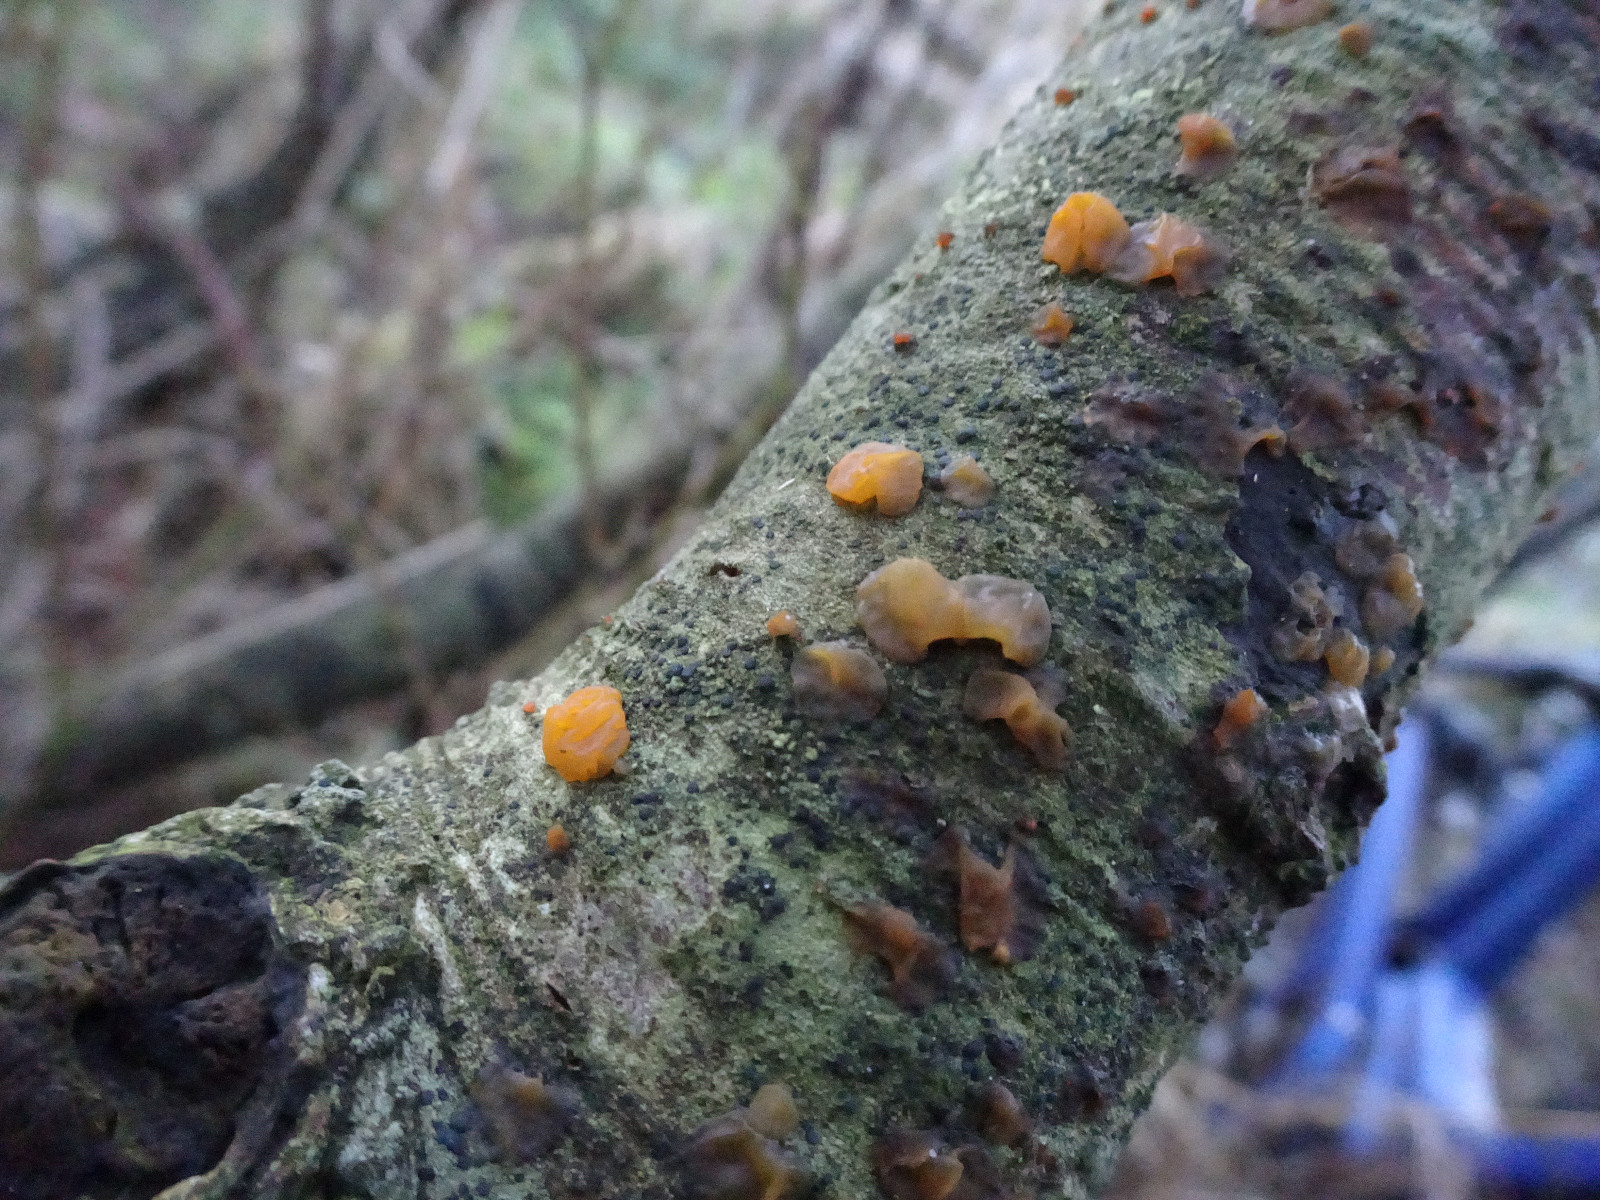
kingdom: Fungi
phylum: Basidiomycota
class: Dacrymycetes
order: Dacrymycetales
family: Dacrymycetaceae
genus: Dacrymyces
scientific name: Dacrymyces lacrymalis
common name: rynket tåresvamp
